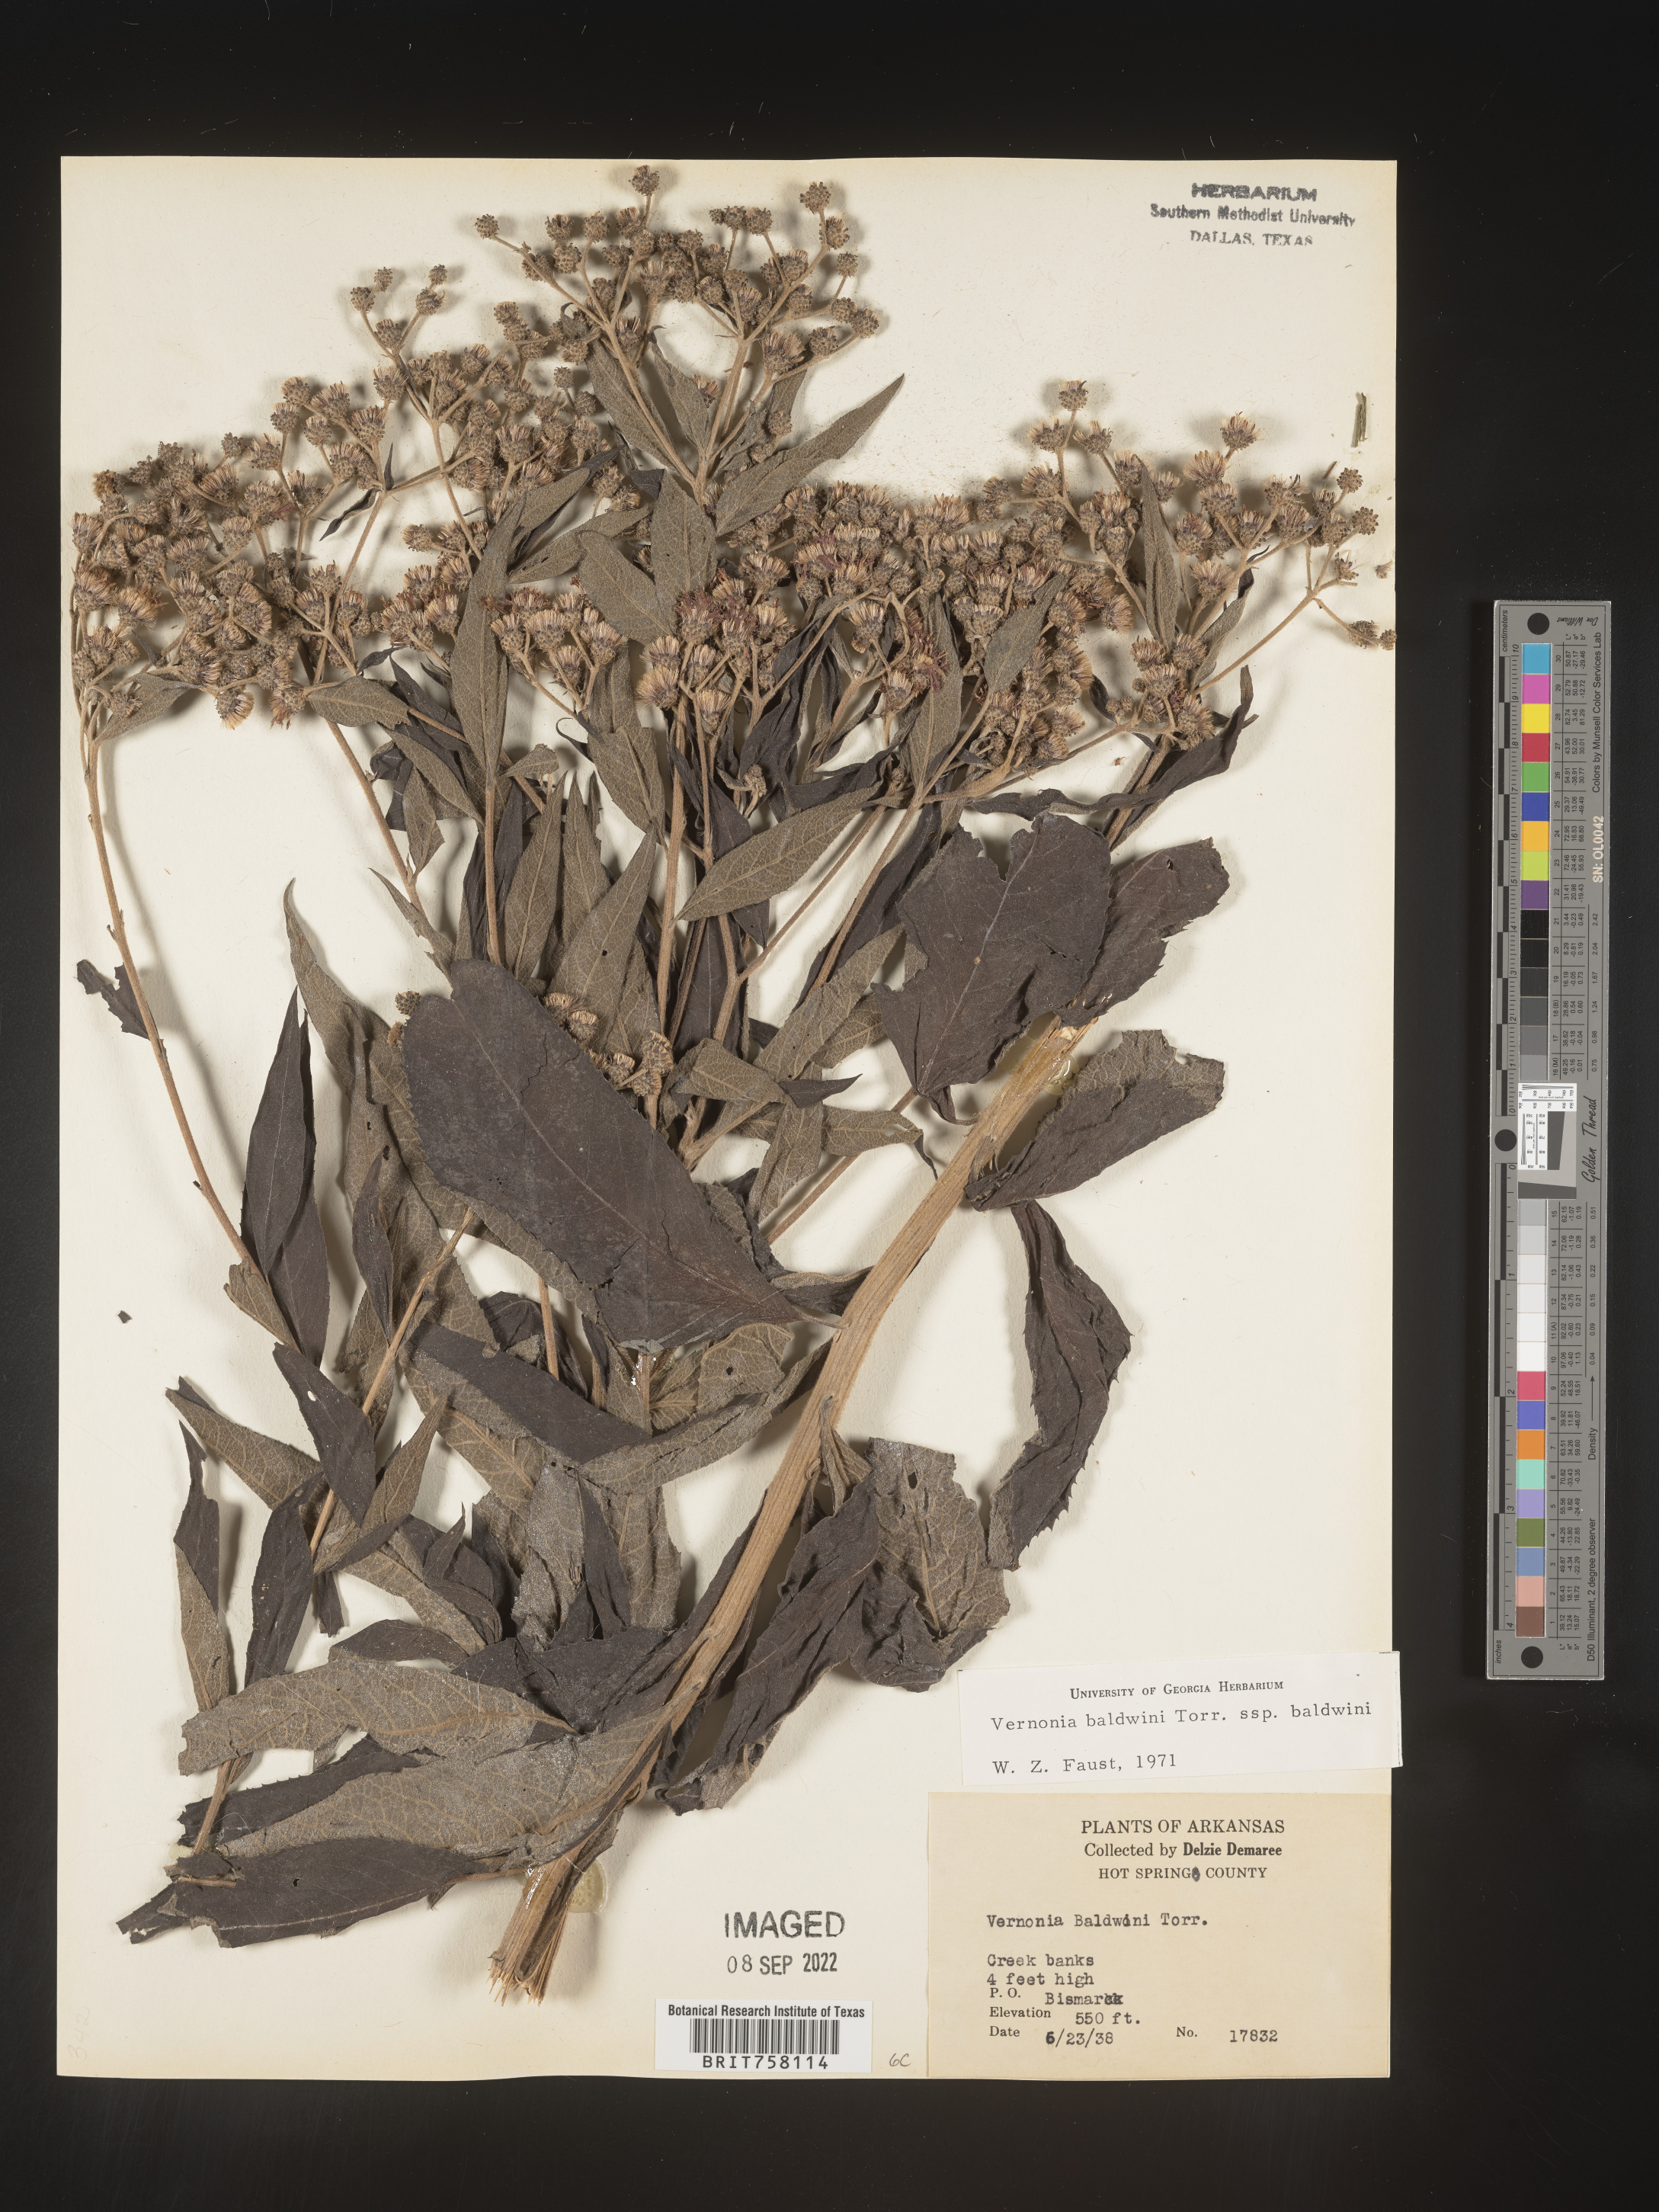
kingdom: Plantae
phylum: Tracheophyta
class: Magnoliopsida
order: Asterales
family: Asteraceae
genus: Vernonia
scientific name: Vernonia baldwinii
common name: Western ironweed
